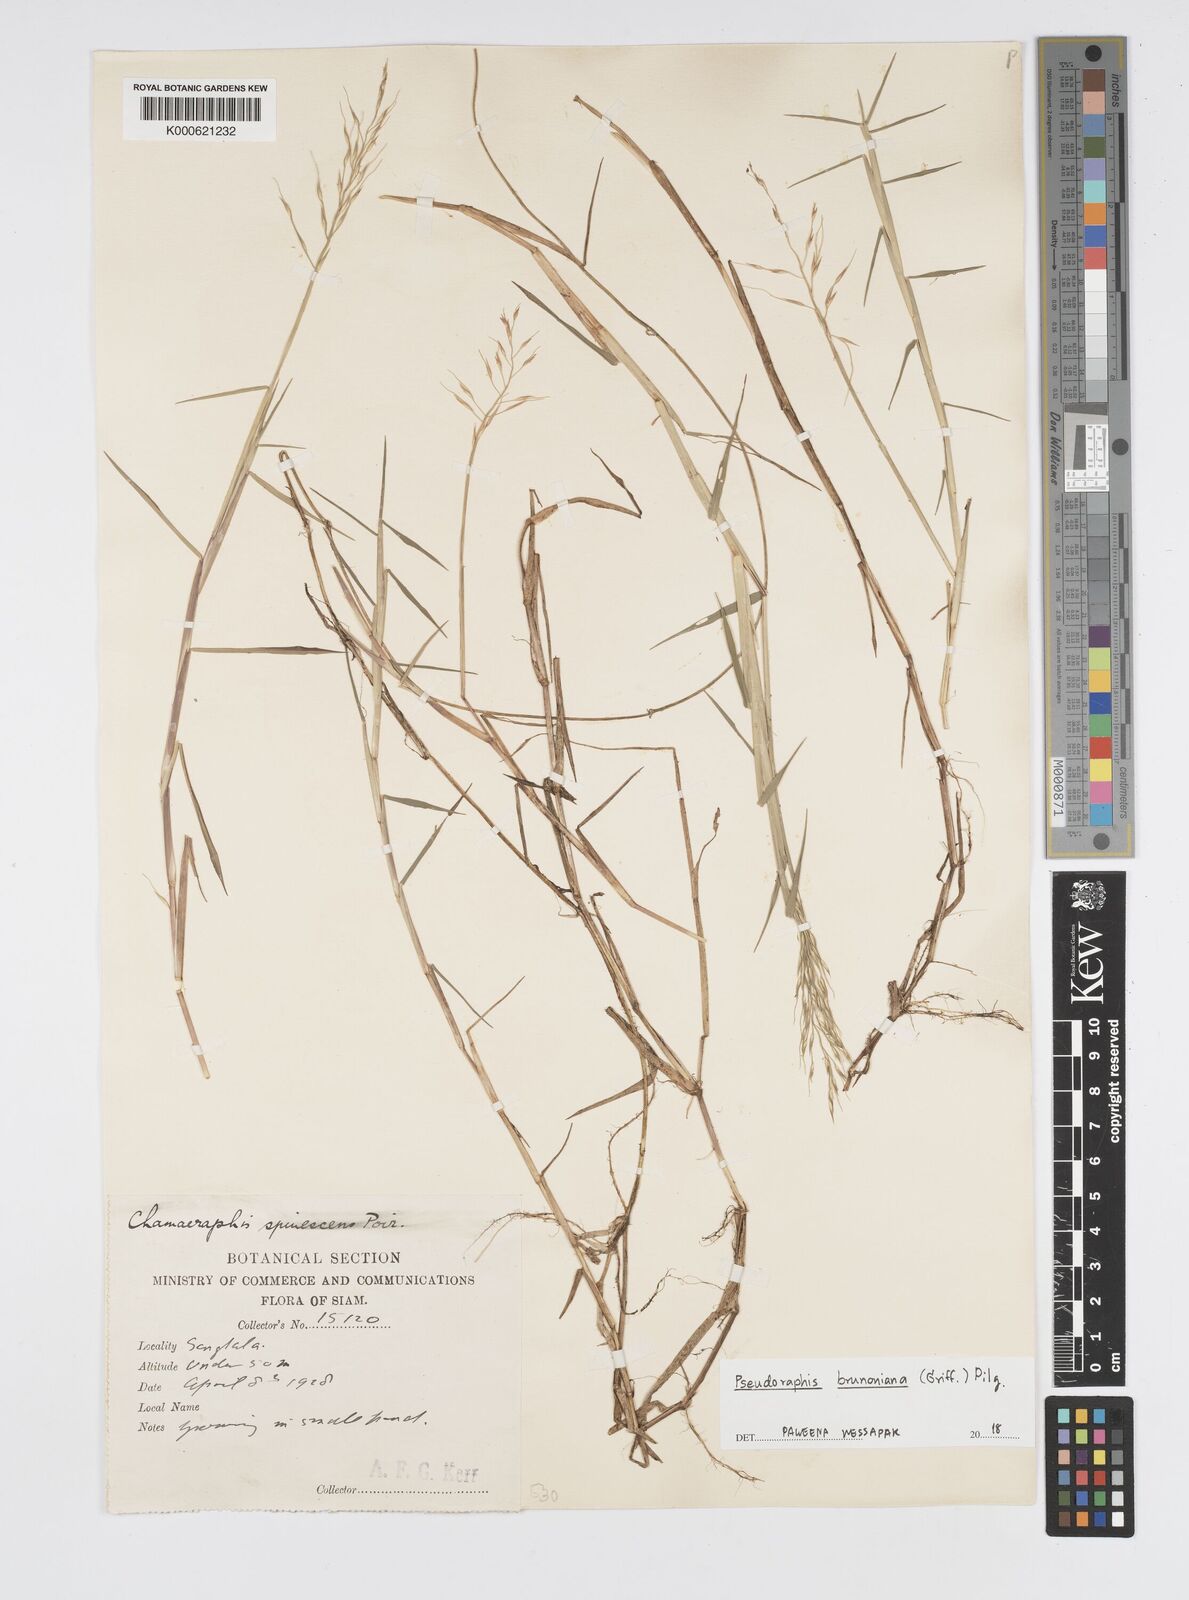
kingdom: Plantae
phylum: Tracheophyta
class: Liliopsida
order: Poales
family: Poaceae
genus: Pseudoraphis
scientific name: Pseudoraphis brunoniana
